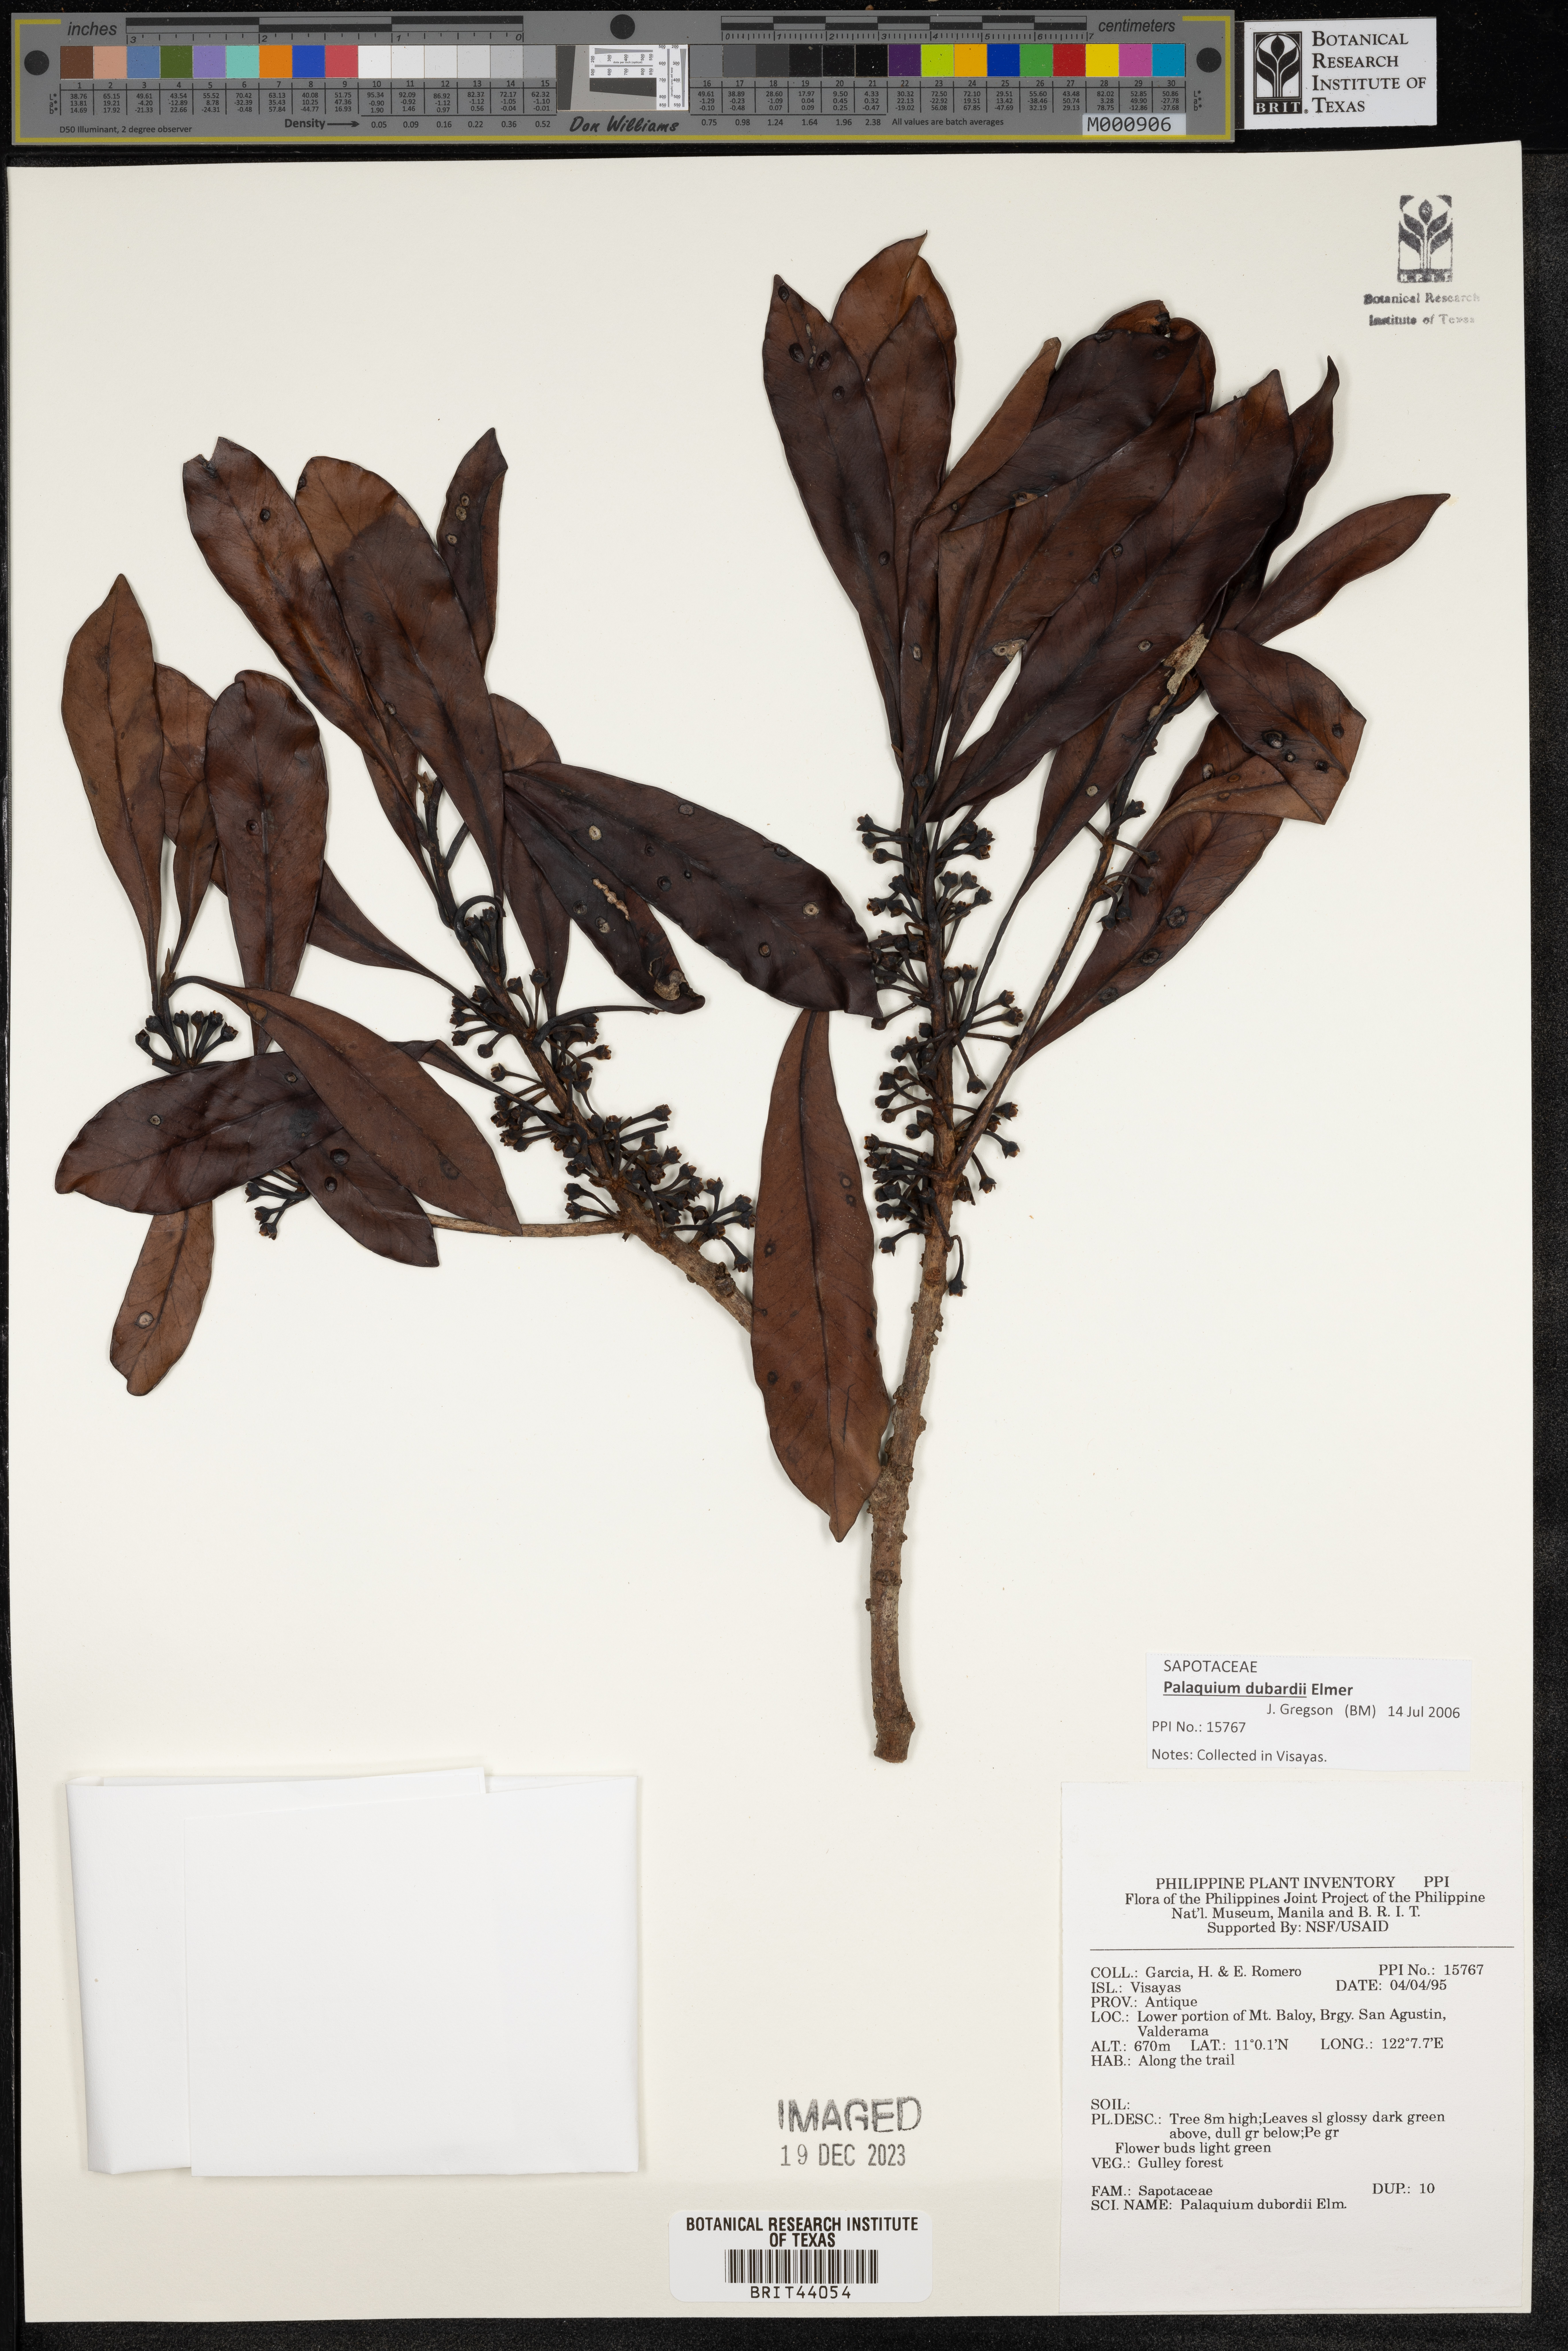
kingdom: Plantae
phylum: Tracheophyta
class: Magnoliopsida
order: Ericales
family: Sapotaceae
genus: Palaquium
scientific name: Palaquium dubardii
